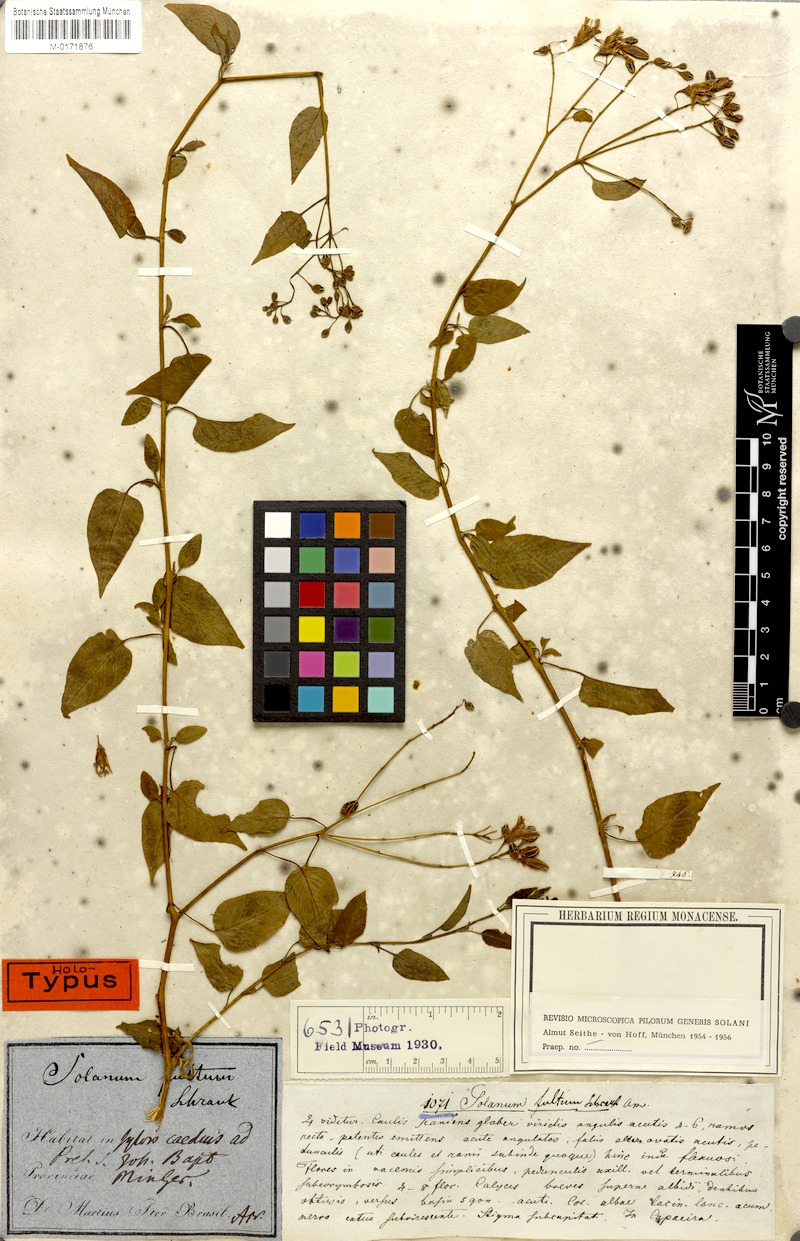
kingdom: Plantae
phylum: Tracheophyta
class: Magnoliopsida
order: Solanales
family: Solanaceae
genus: Solanum
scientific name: Solanum fultum
